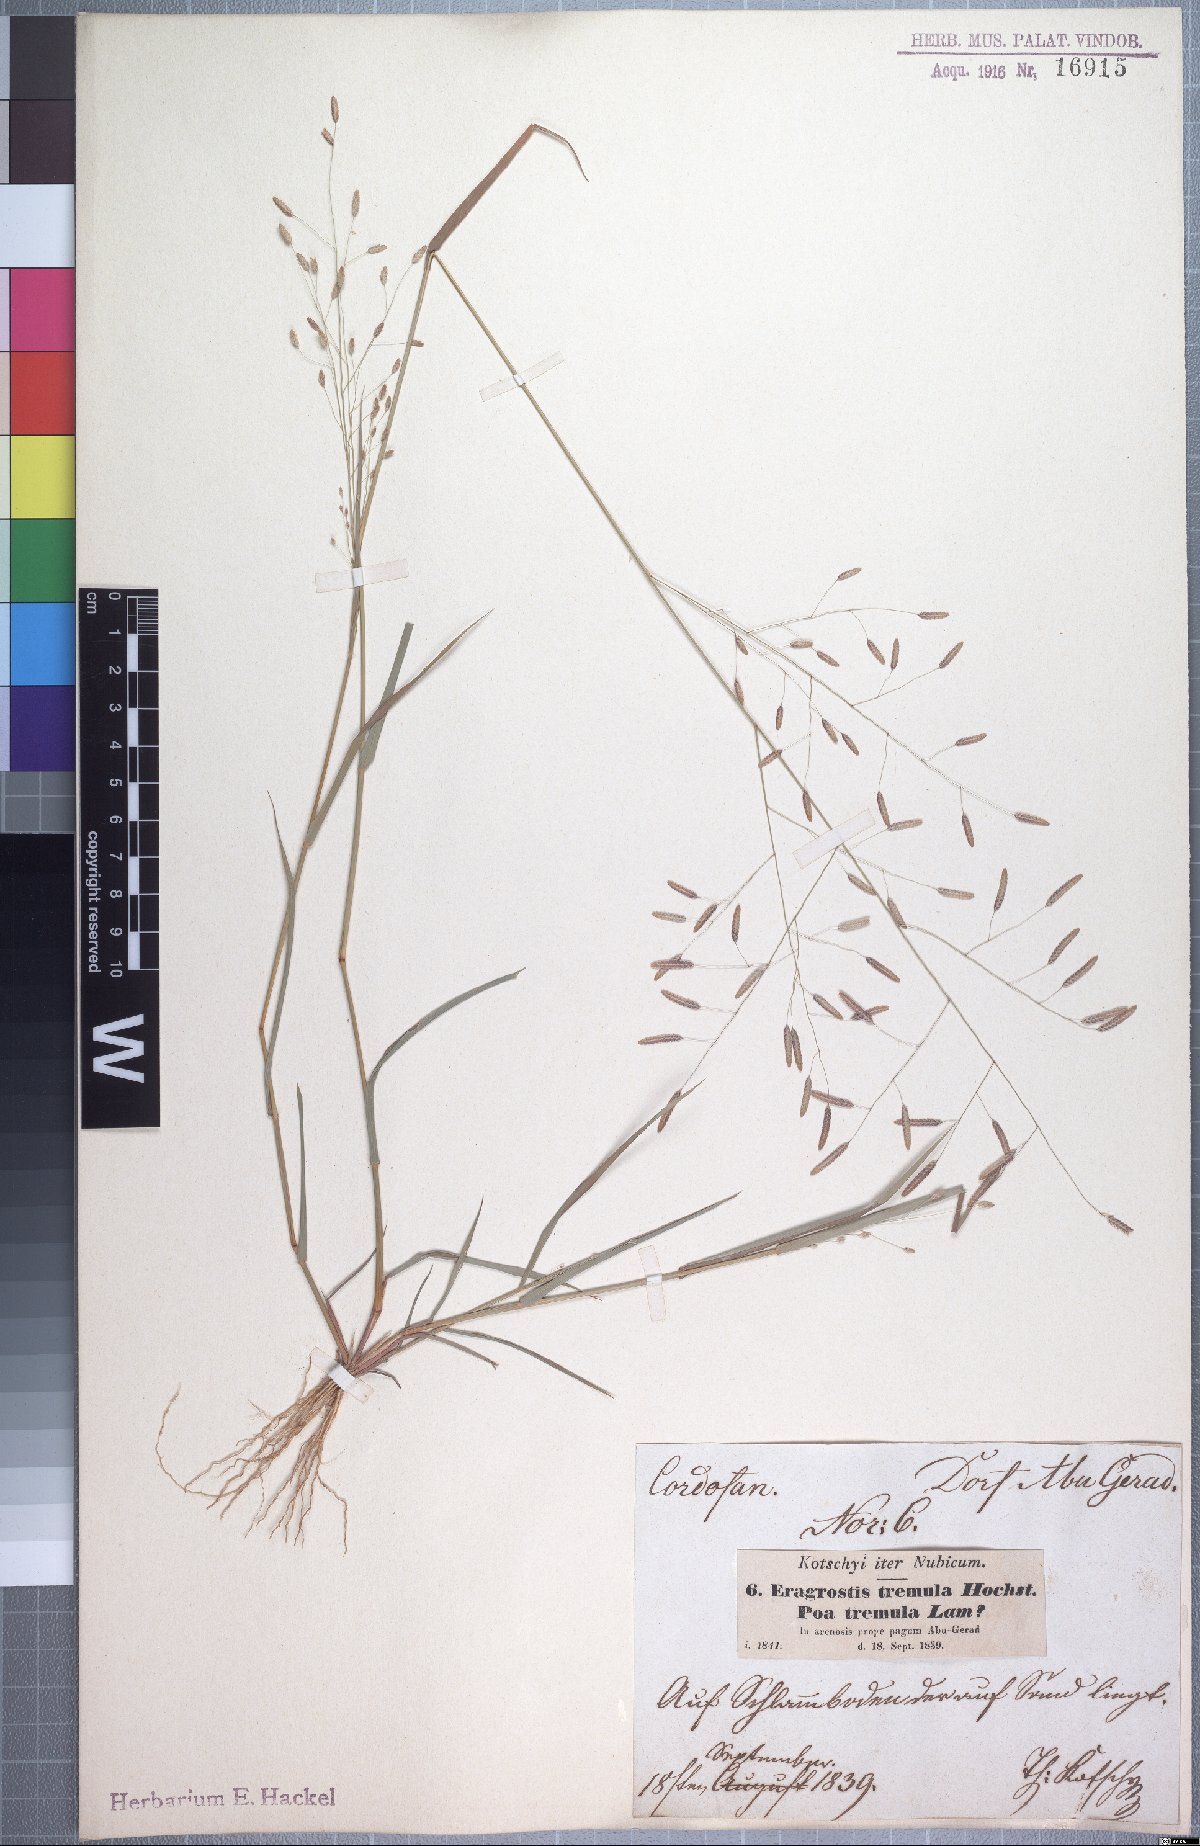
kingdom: Plantae
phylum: Tracheophyta
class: Liliopsida
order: Poales
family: Poaceae
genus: Eragrostis
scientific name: Eragrostis tremula
